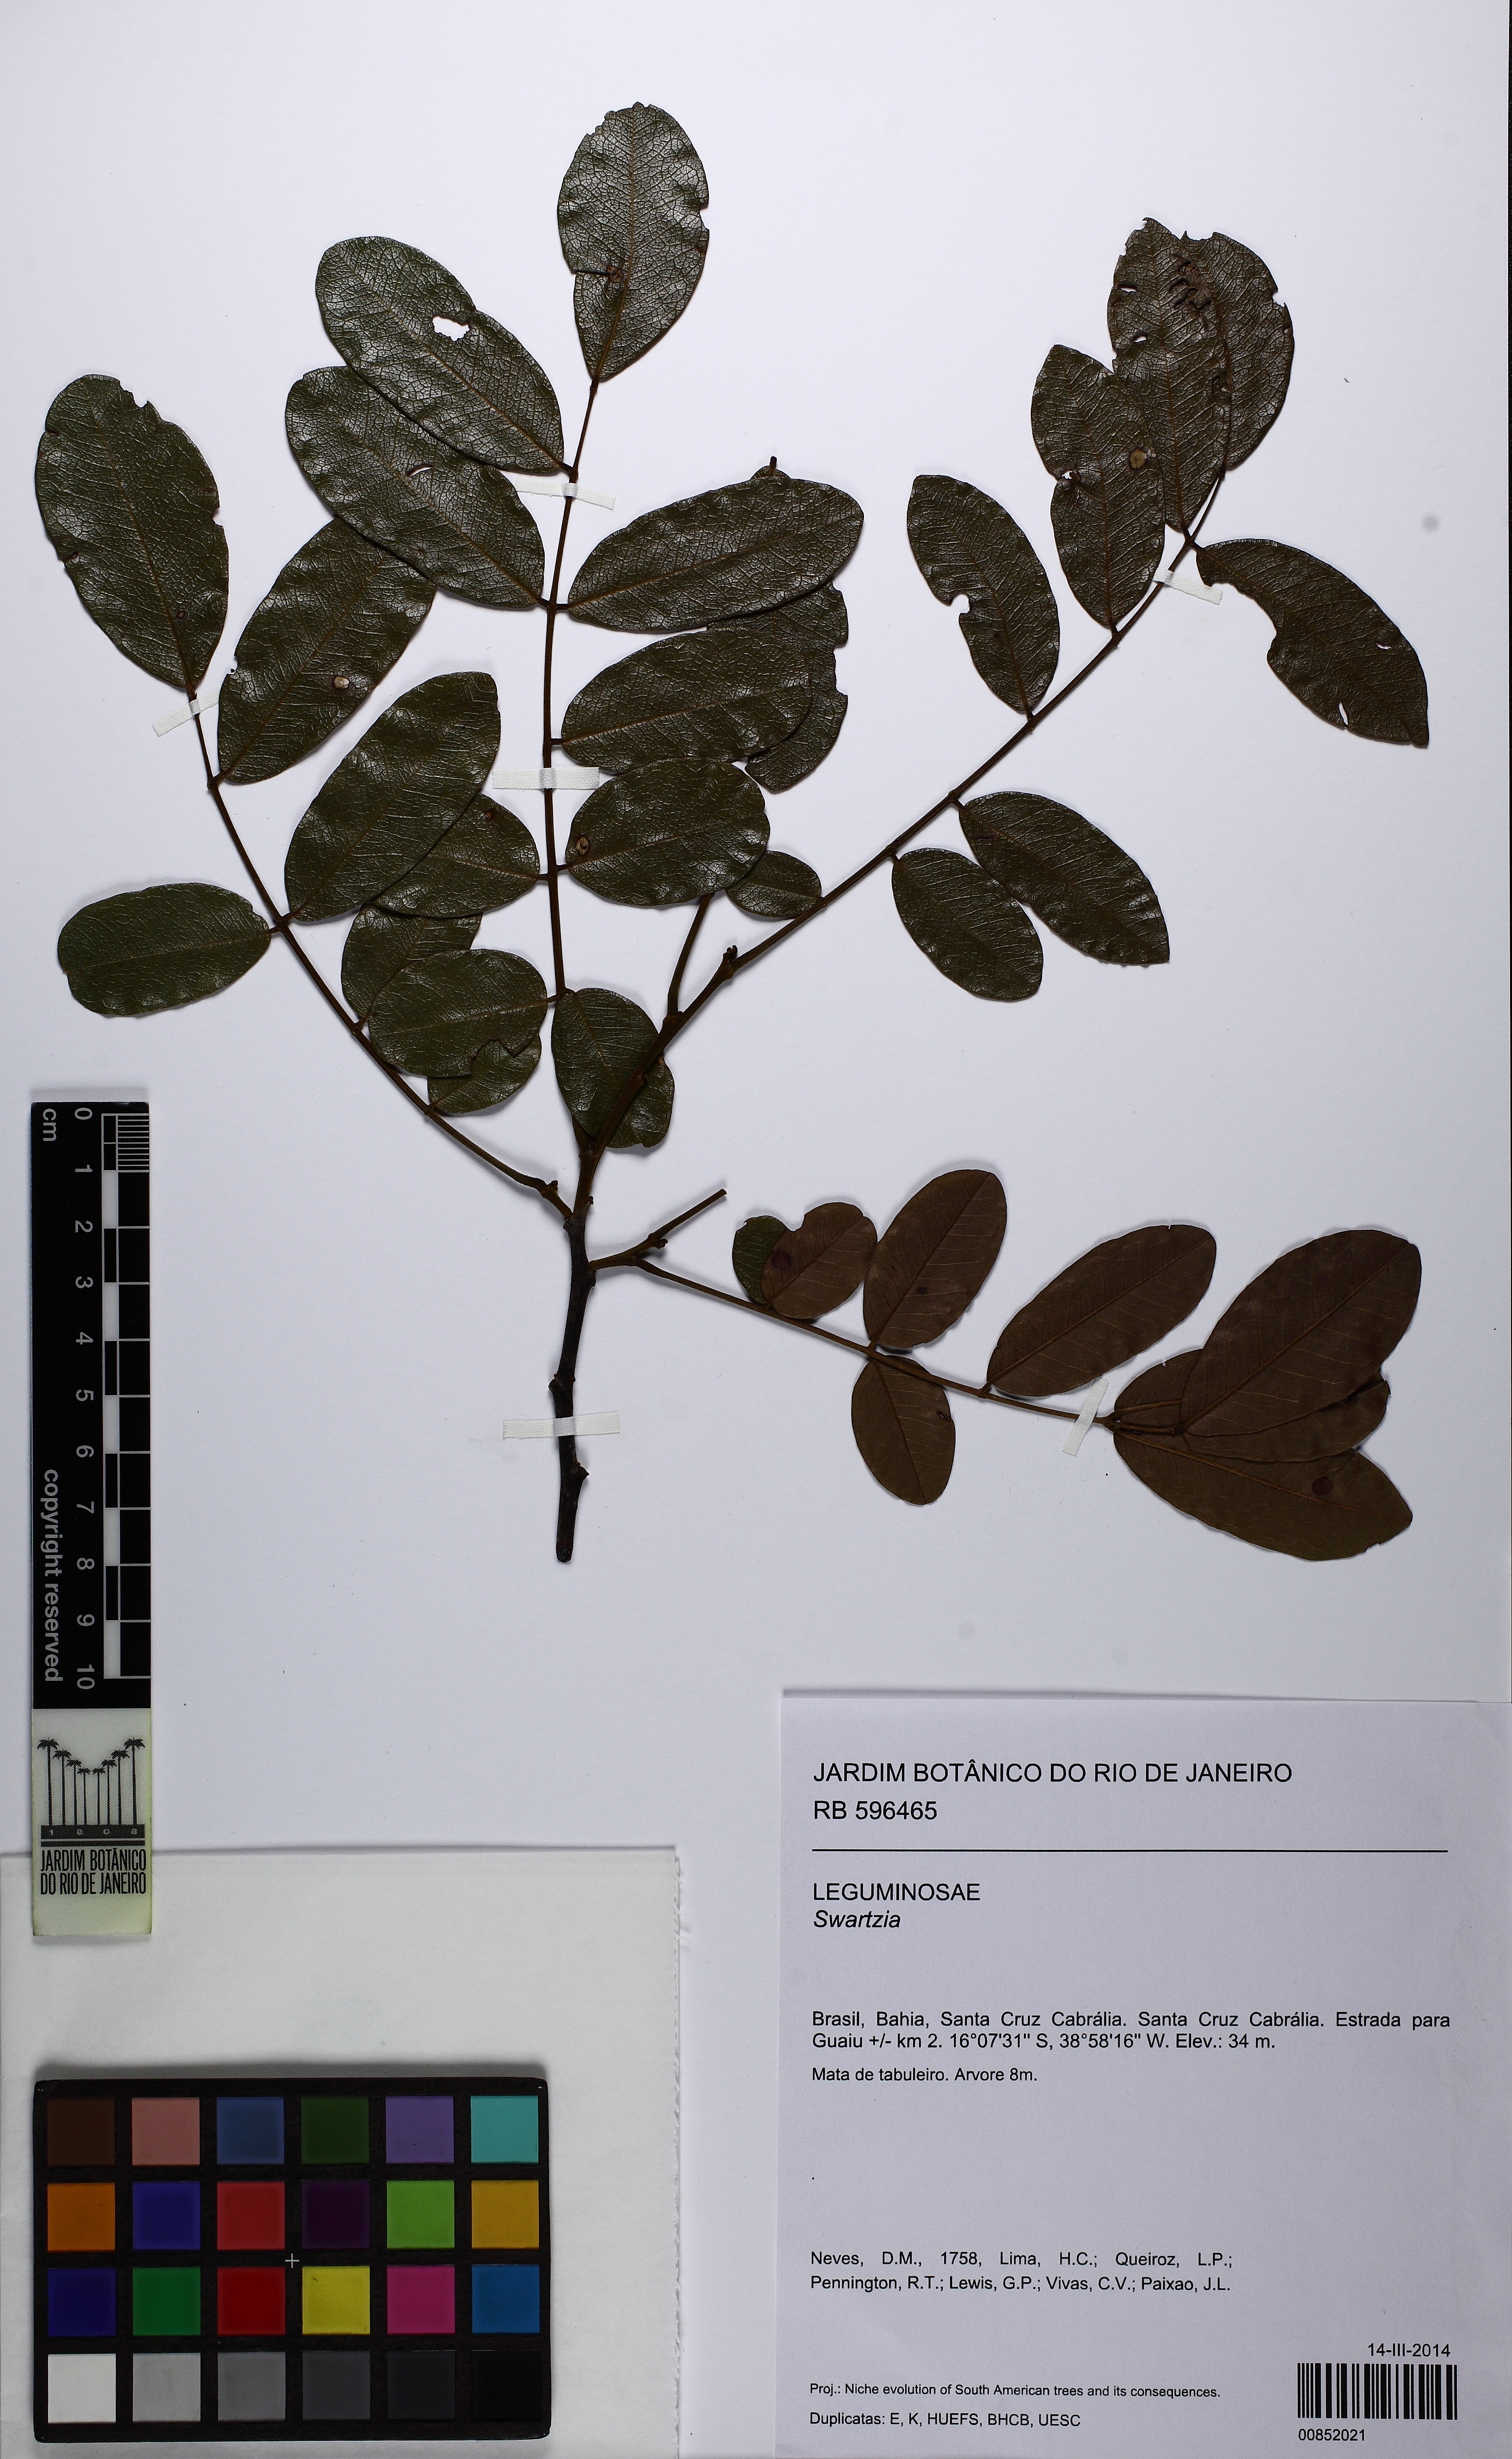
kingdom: Plantae
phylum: Tracheophyta
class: Magnoliopsida
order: Fabales
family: Fabaceae
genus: Swartzia
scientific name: Swartzia oblata
